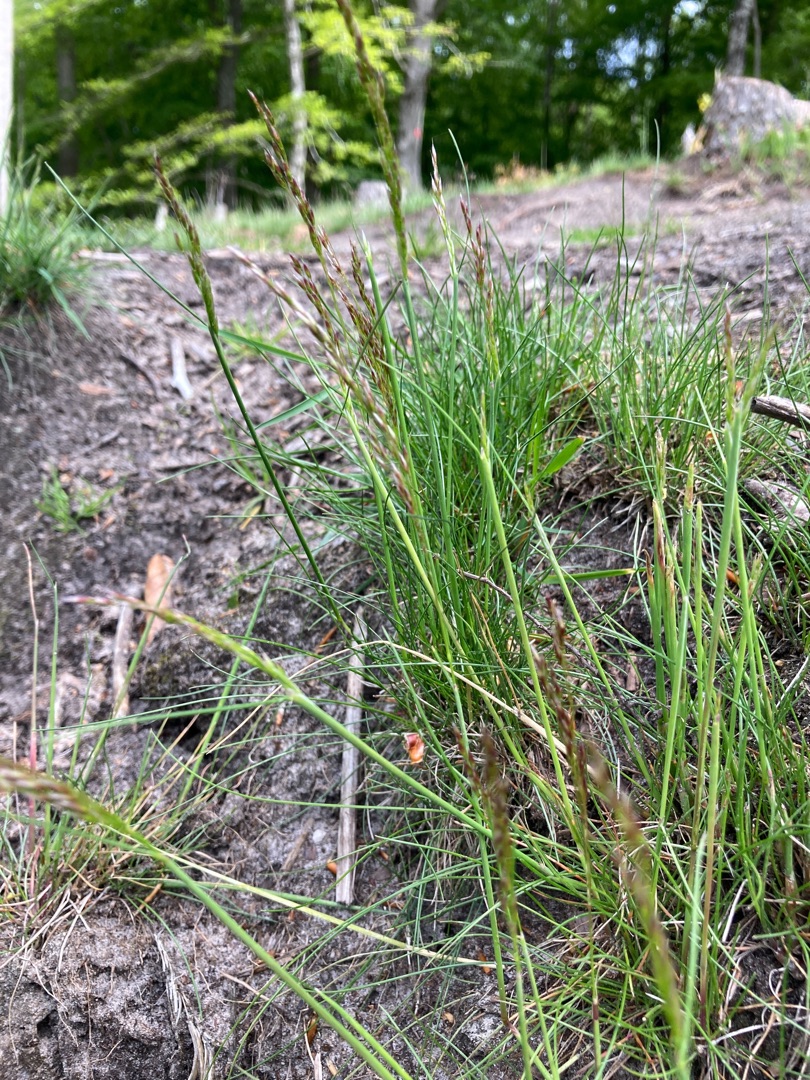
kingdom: Plantae
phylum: Tracheophyta
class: Liliopsida
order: Poales
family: Poaceae
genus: Avenella
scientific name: Avenella flexuosa
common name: Bølget bunke
